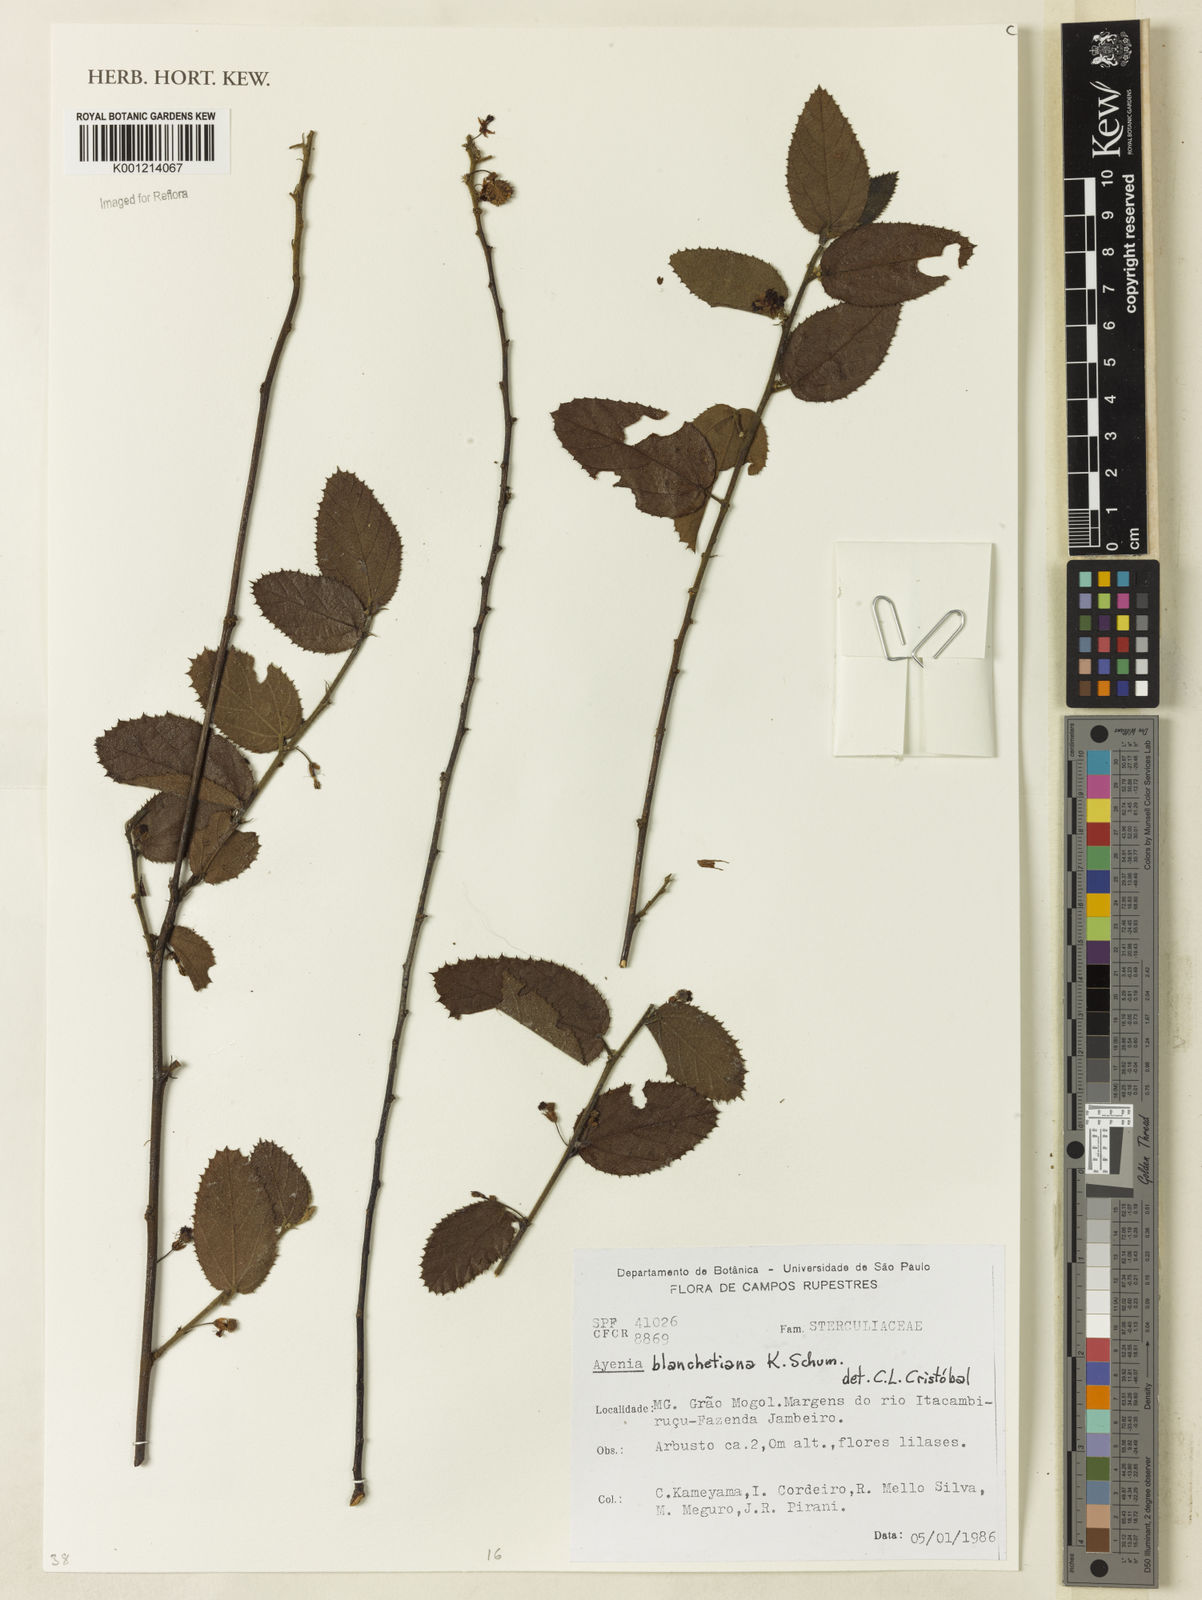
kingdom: Plantae
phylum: Tracheophyta
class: Magnoliopsida
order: Malvales
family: Malvaceae
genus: Ayenia
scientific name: Ayenia blanchetiana
